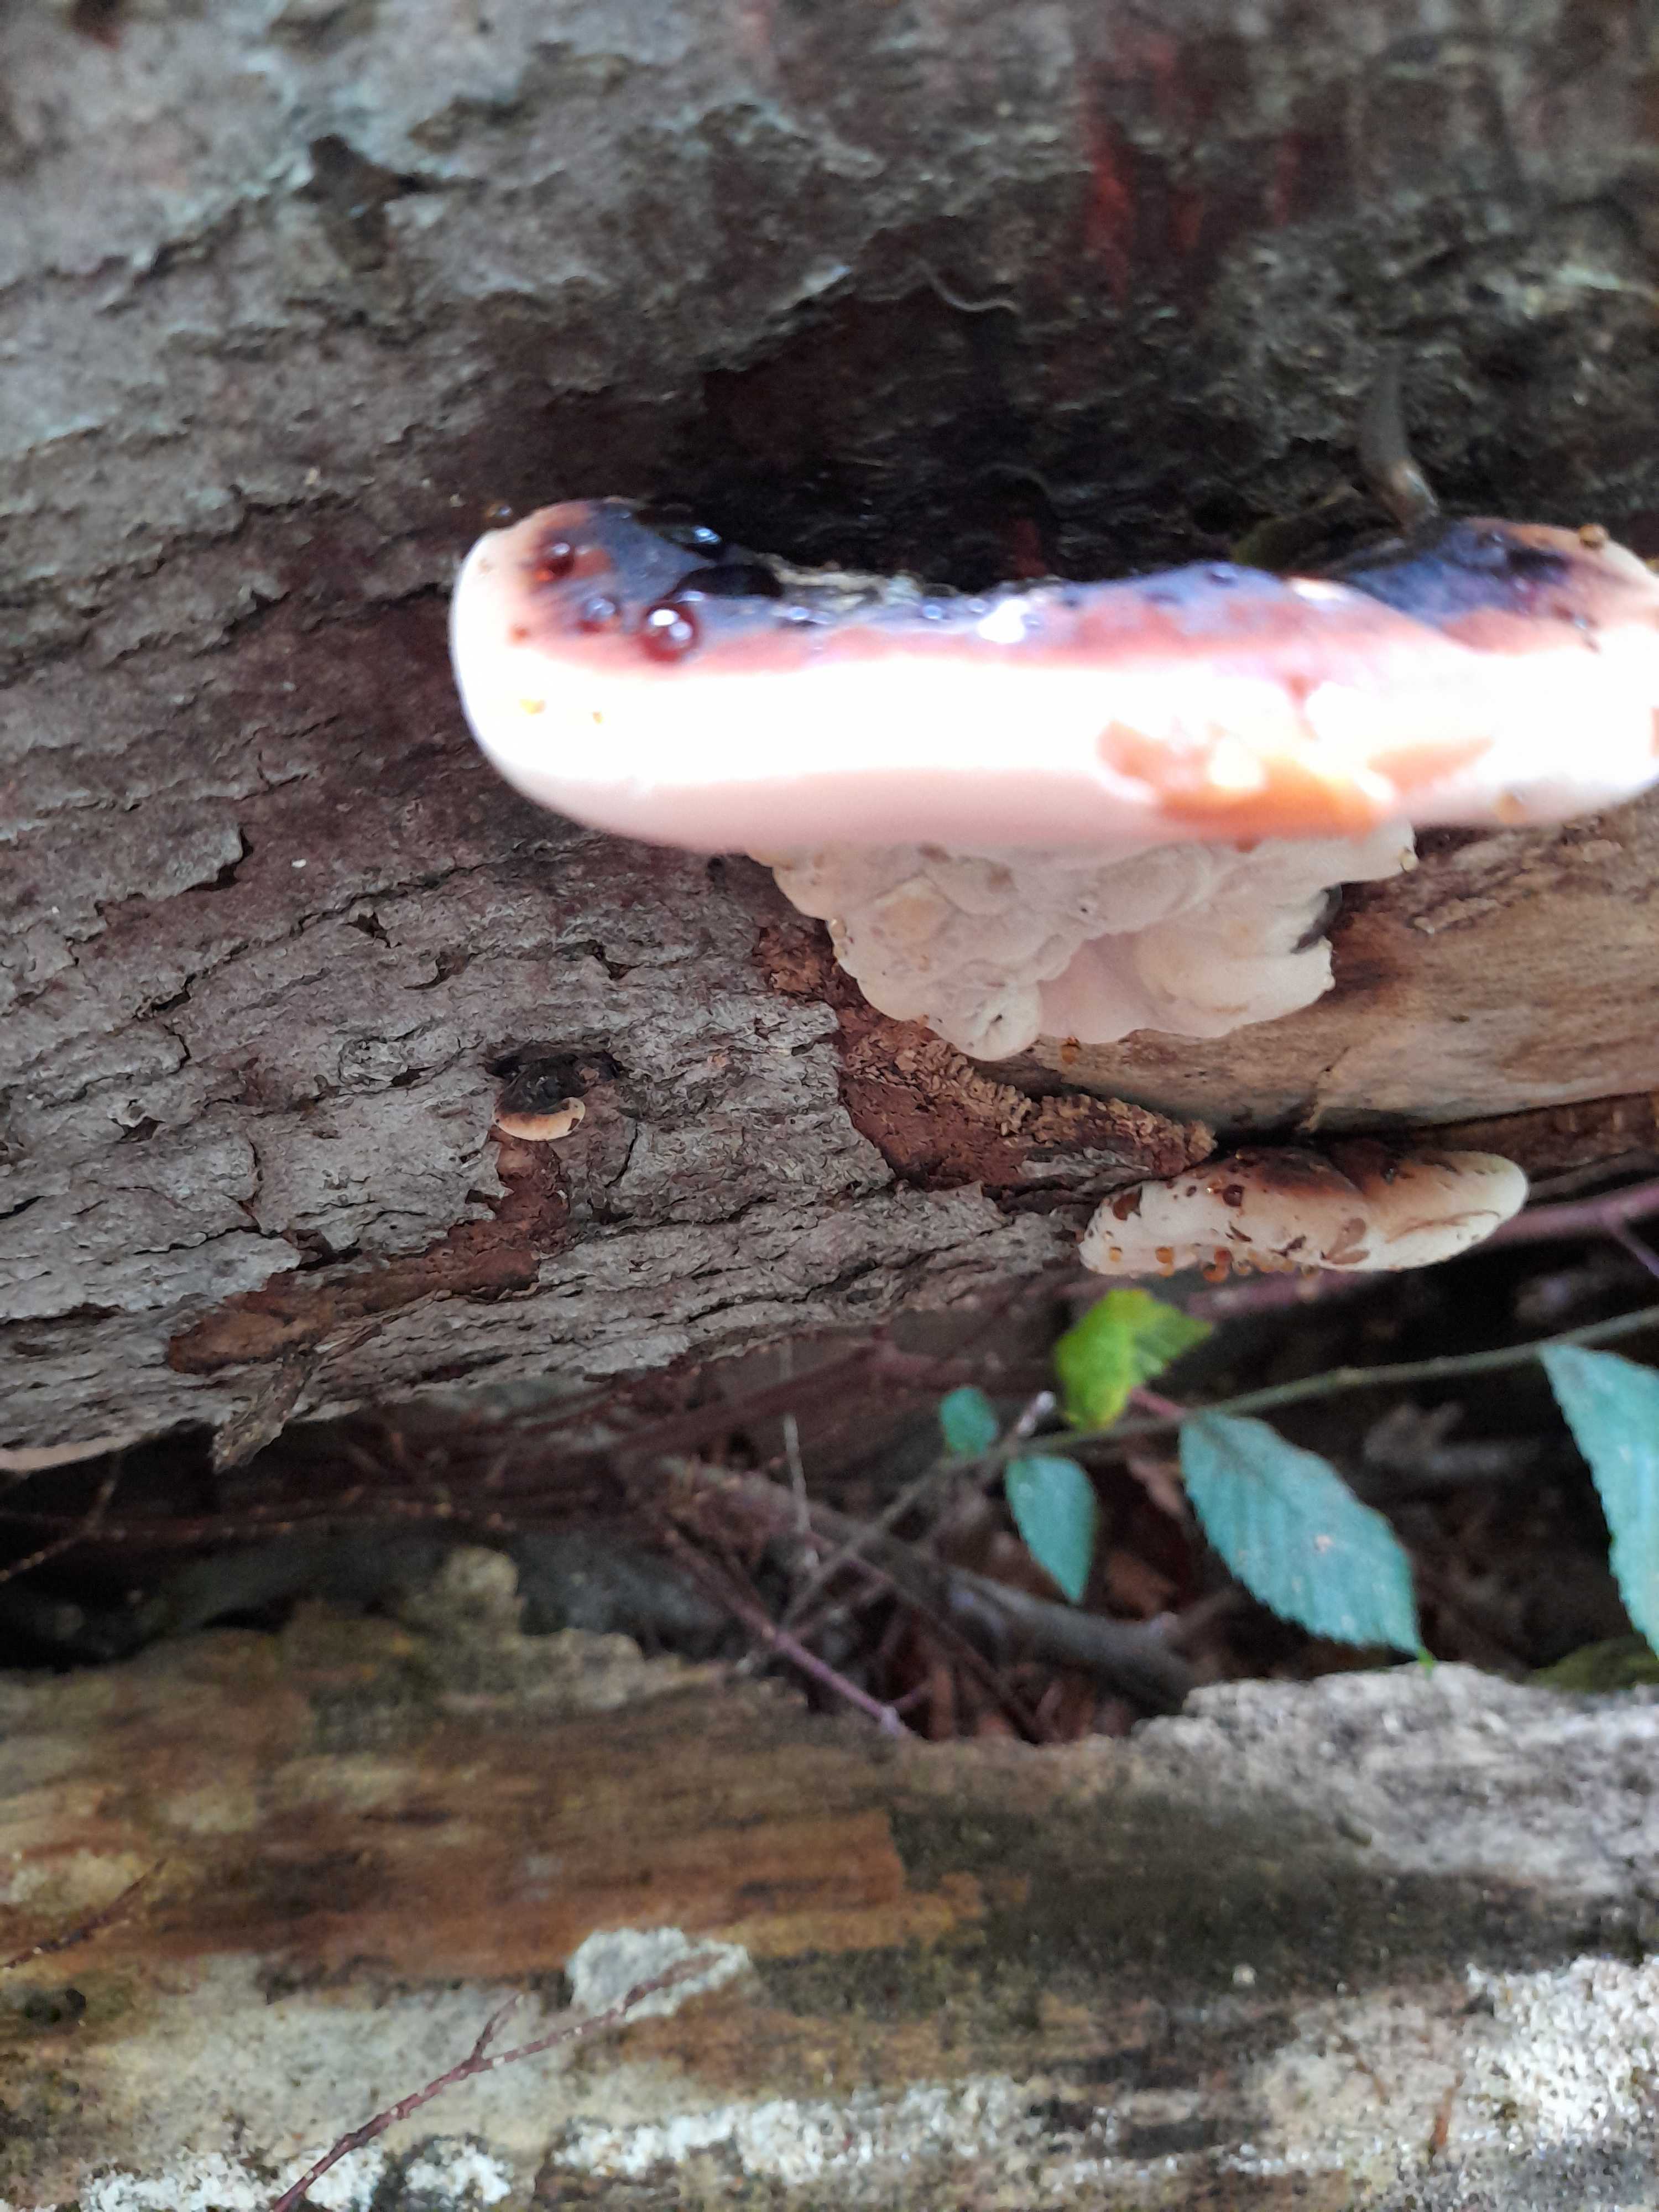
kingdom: Fungi
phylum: Basidiomycota
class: Agaricomycetes
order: Polyporales
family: Ischnodermataceae
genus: Ischnoderma
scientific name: Ischnoderma resinosum
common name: løv-tjæreporesvamp
